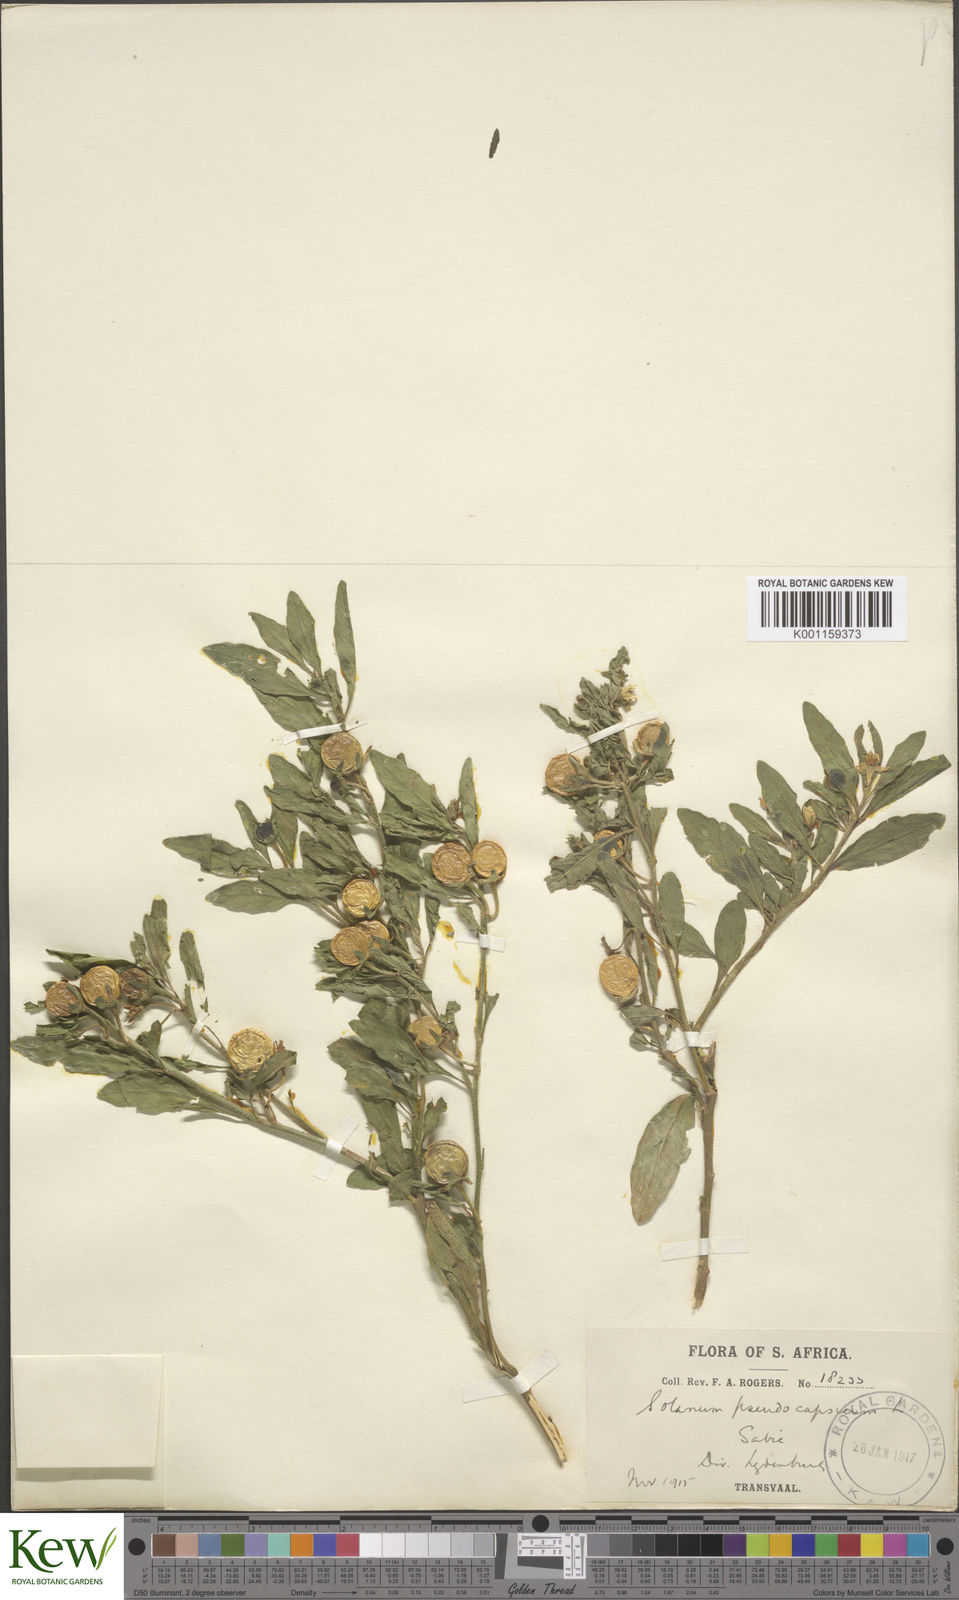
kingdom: Plantae
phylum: Tracheophyta
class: Magnoliopsida
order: Solanales
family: Solanaceae
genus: Solanum
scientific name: Solanum pseudocapsicum
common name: Jerusalem cherry
